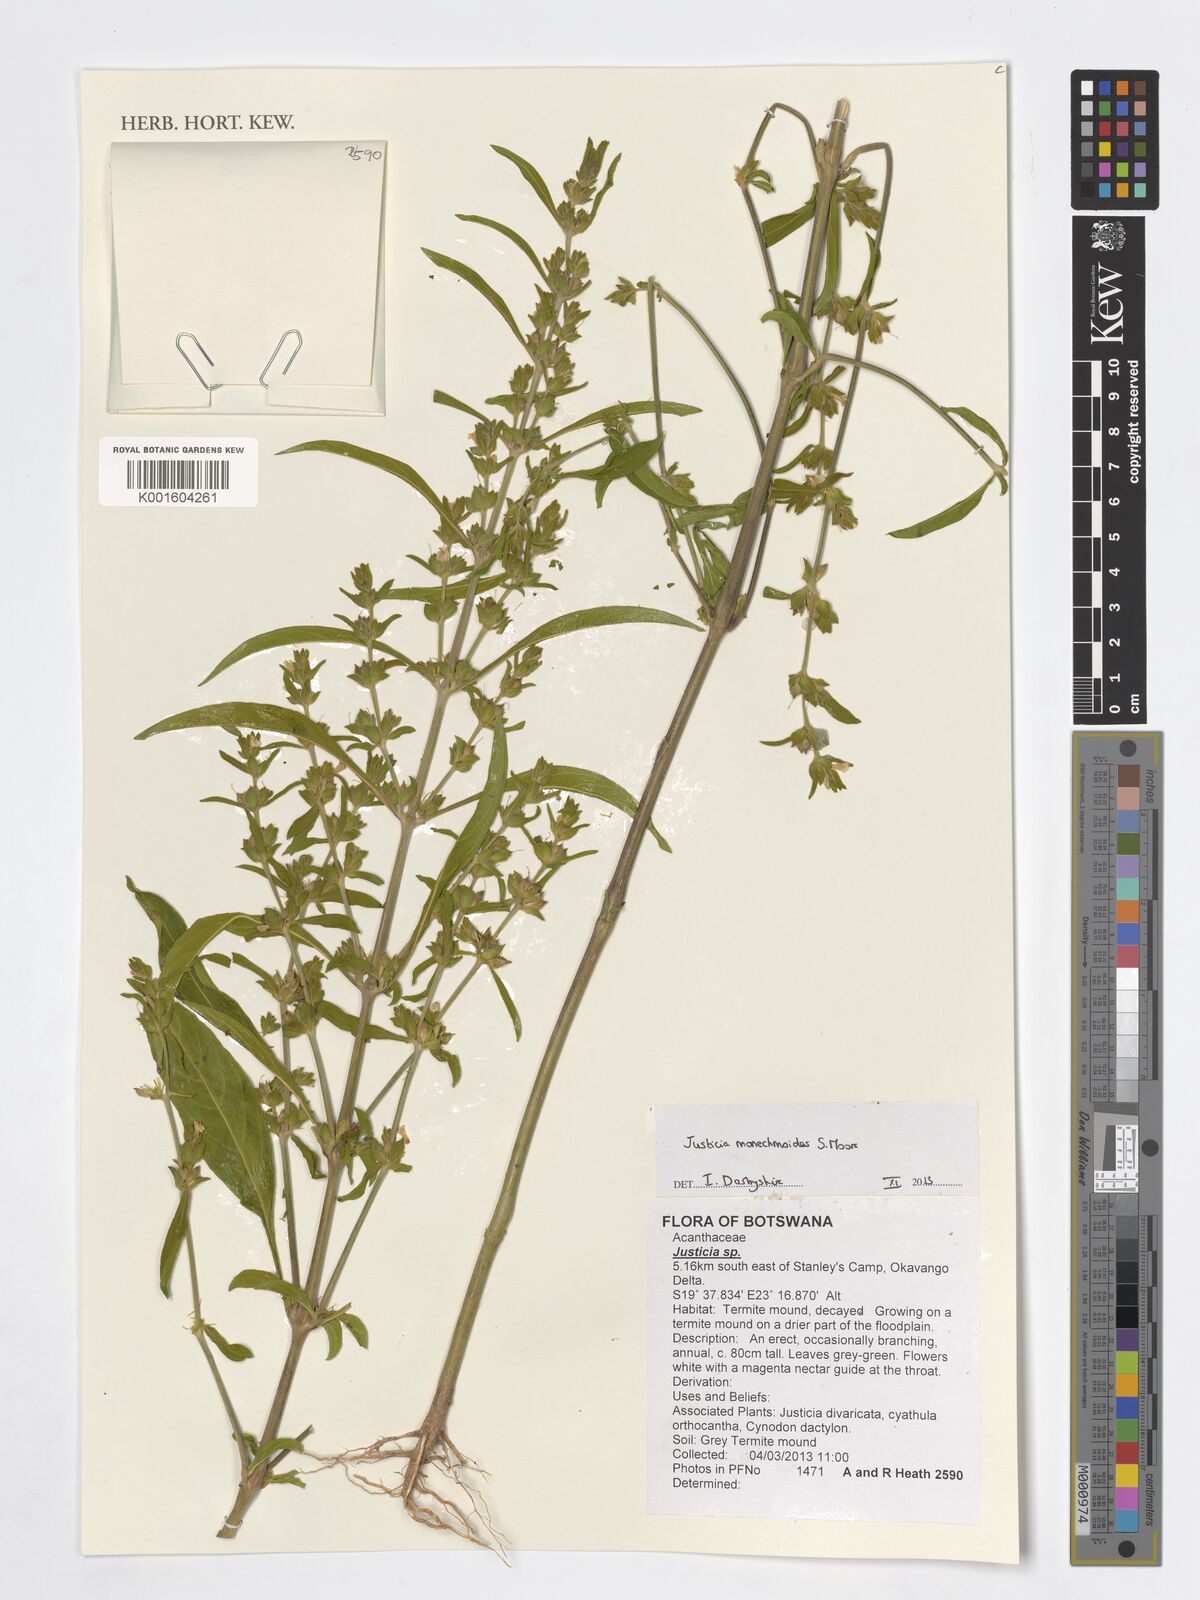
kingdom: Plantae
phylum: Tracheophyta
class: Magnoliopsida
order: Lamiales
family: Acanthaceae
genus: Justicia
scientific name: Justicia
